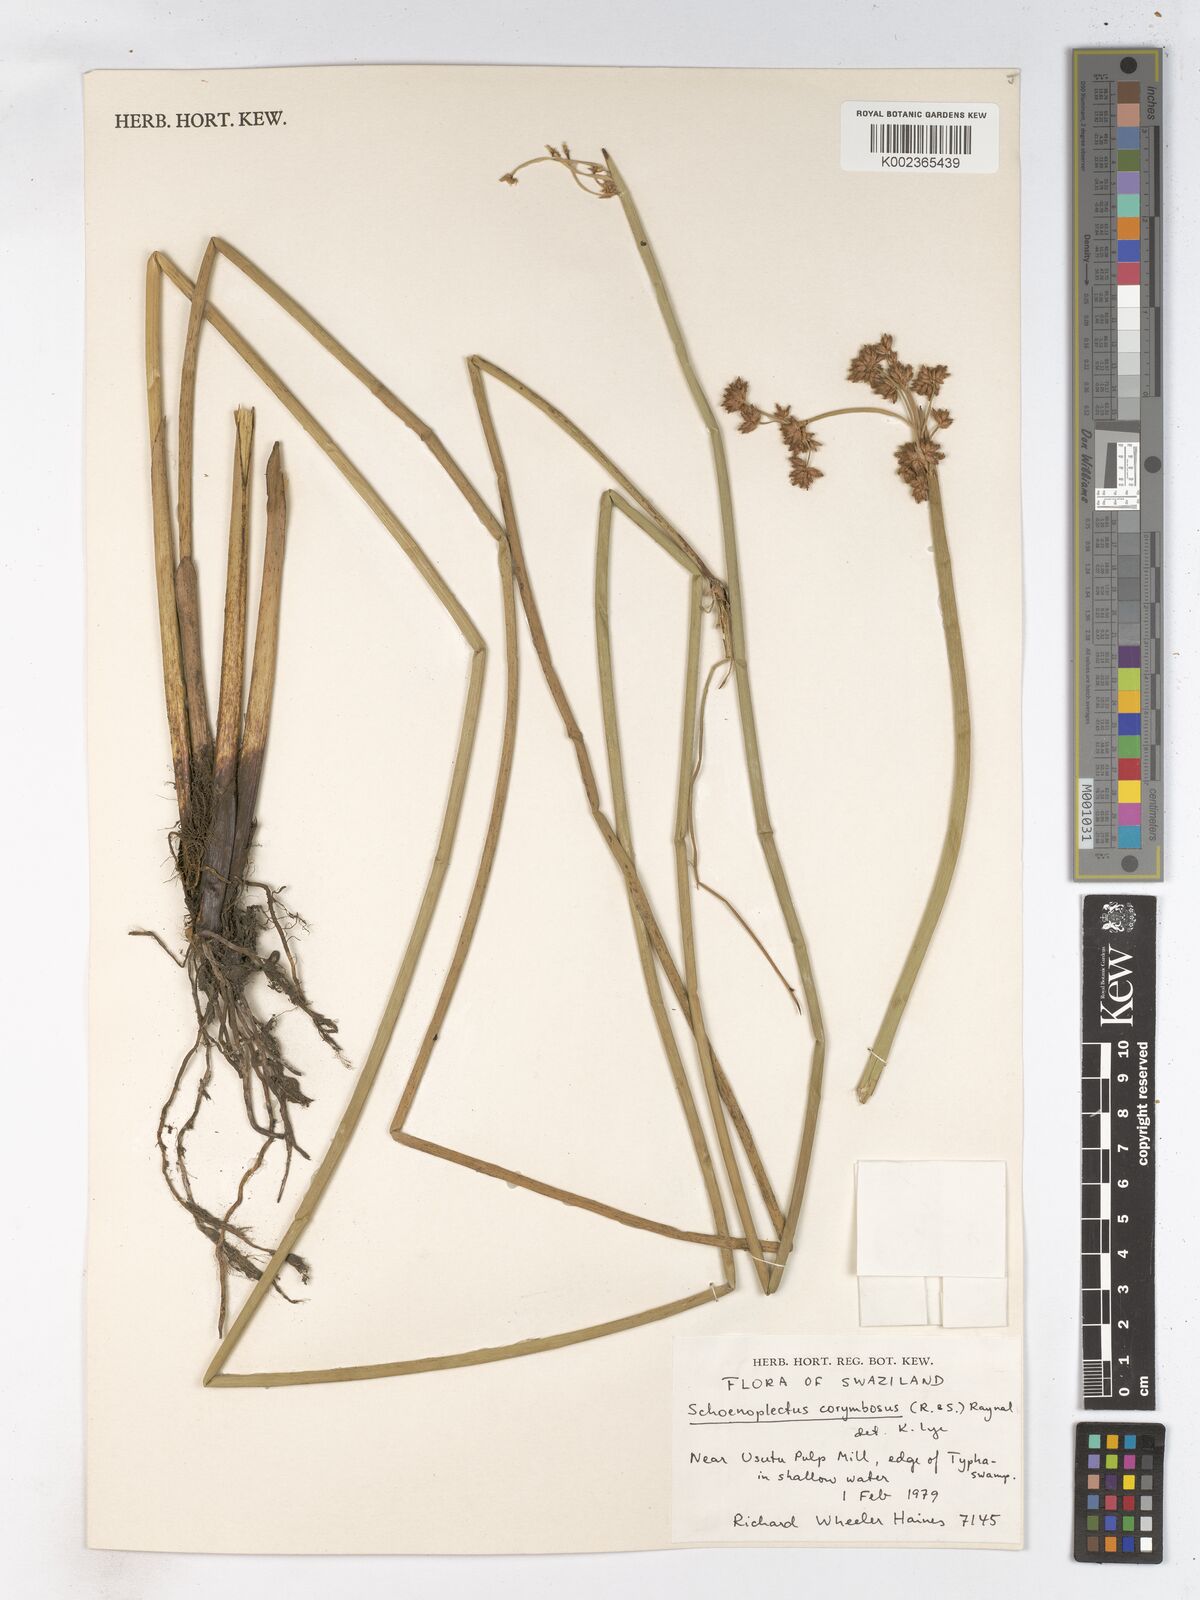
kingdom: Plantae
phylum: Tracheophyta
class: Liliopsida
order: Poales
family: Cyperaceae
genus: Schoenoplectiella
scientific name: Schoenoplectiella corymbosa
